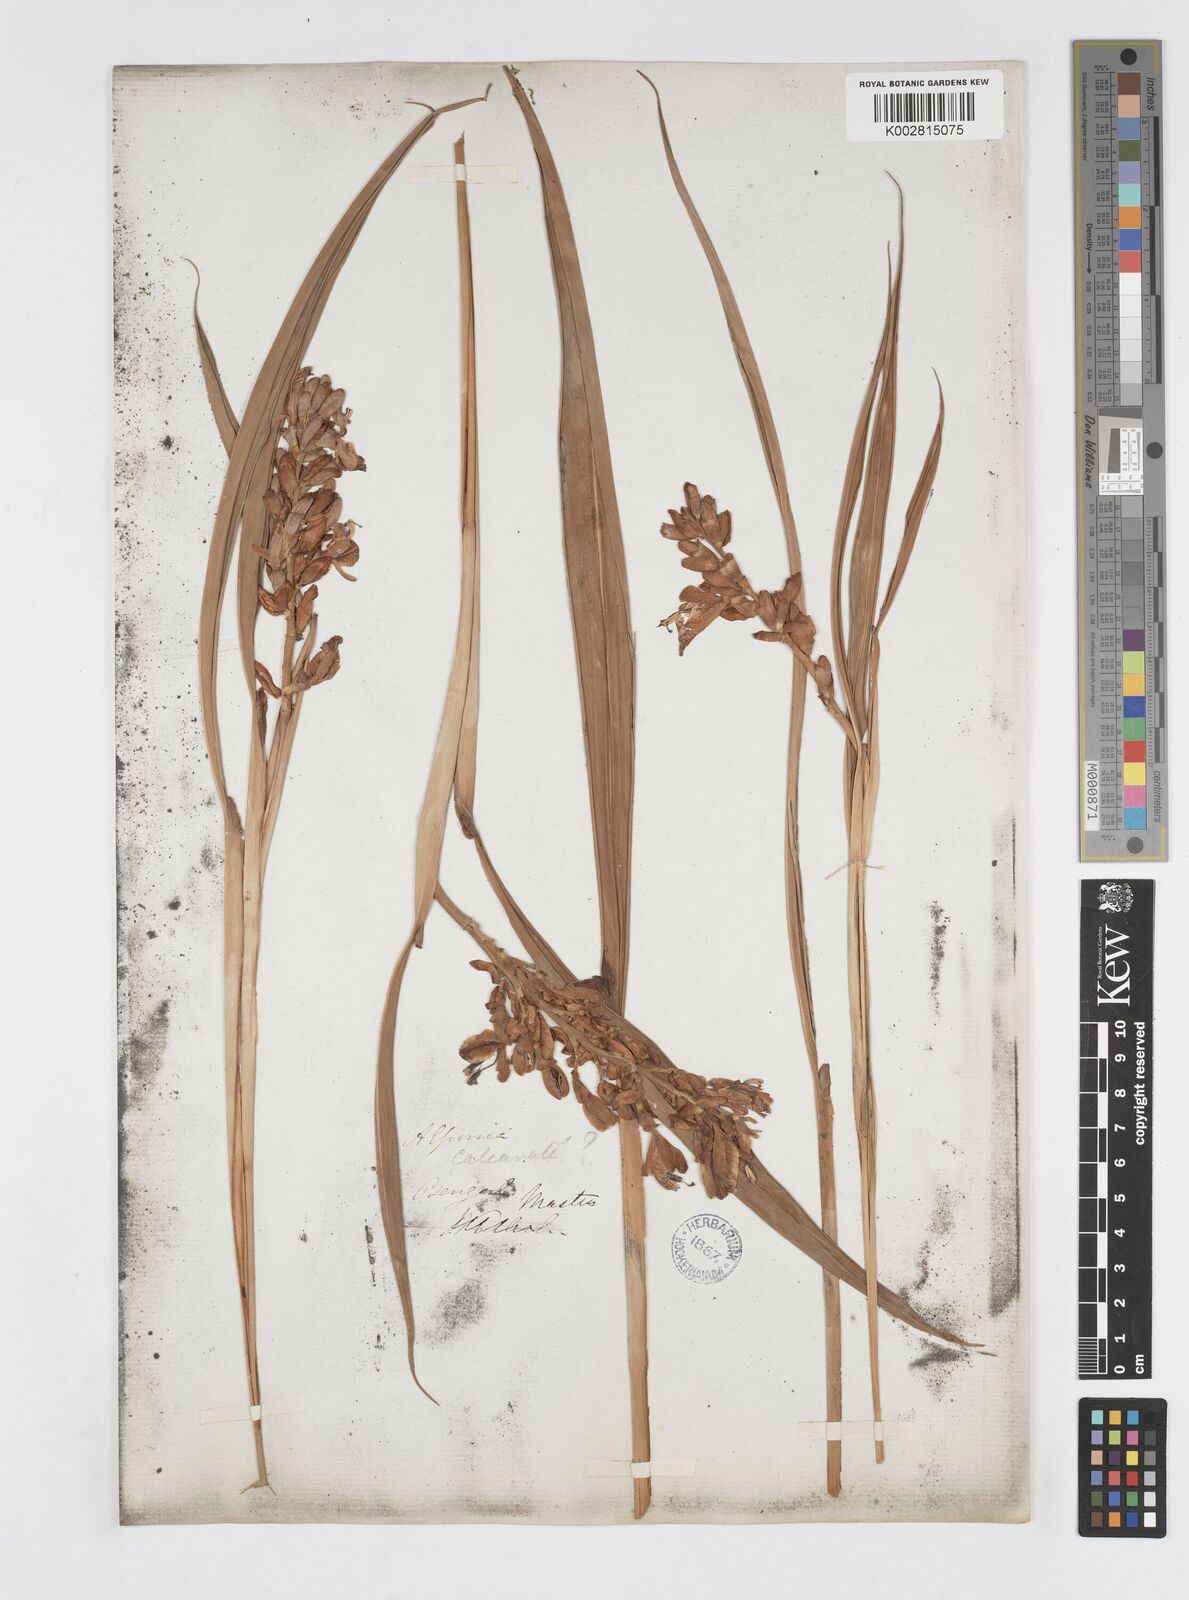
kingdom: Plantae
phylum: Tracheophyta
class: Liliopsida
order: Zingiberales
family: Zingiberaceae
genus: Alpinia
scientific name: Alpinia calcarata
